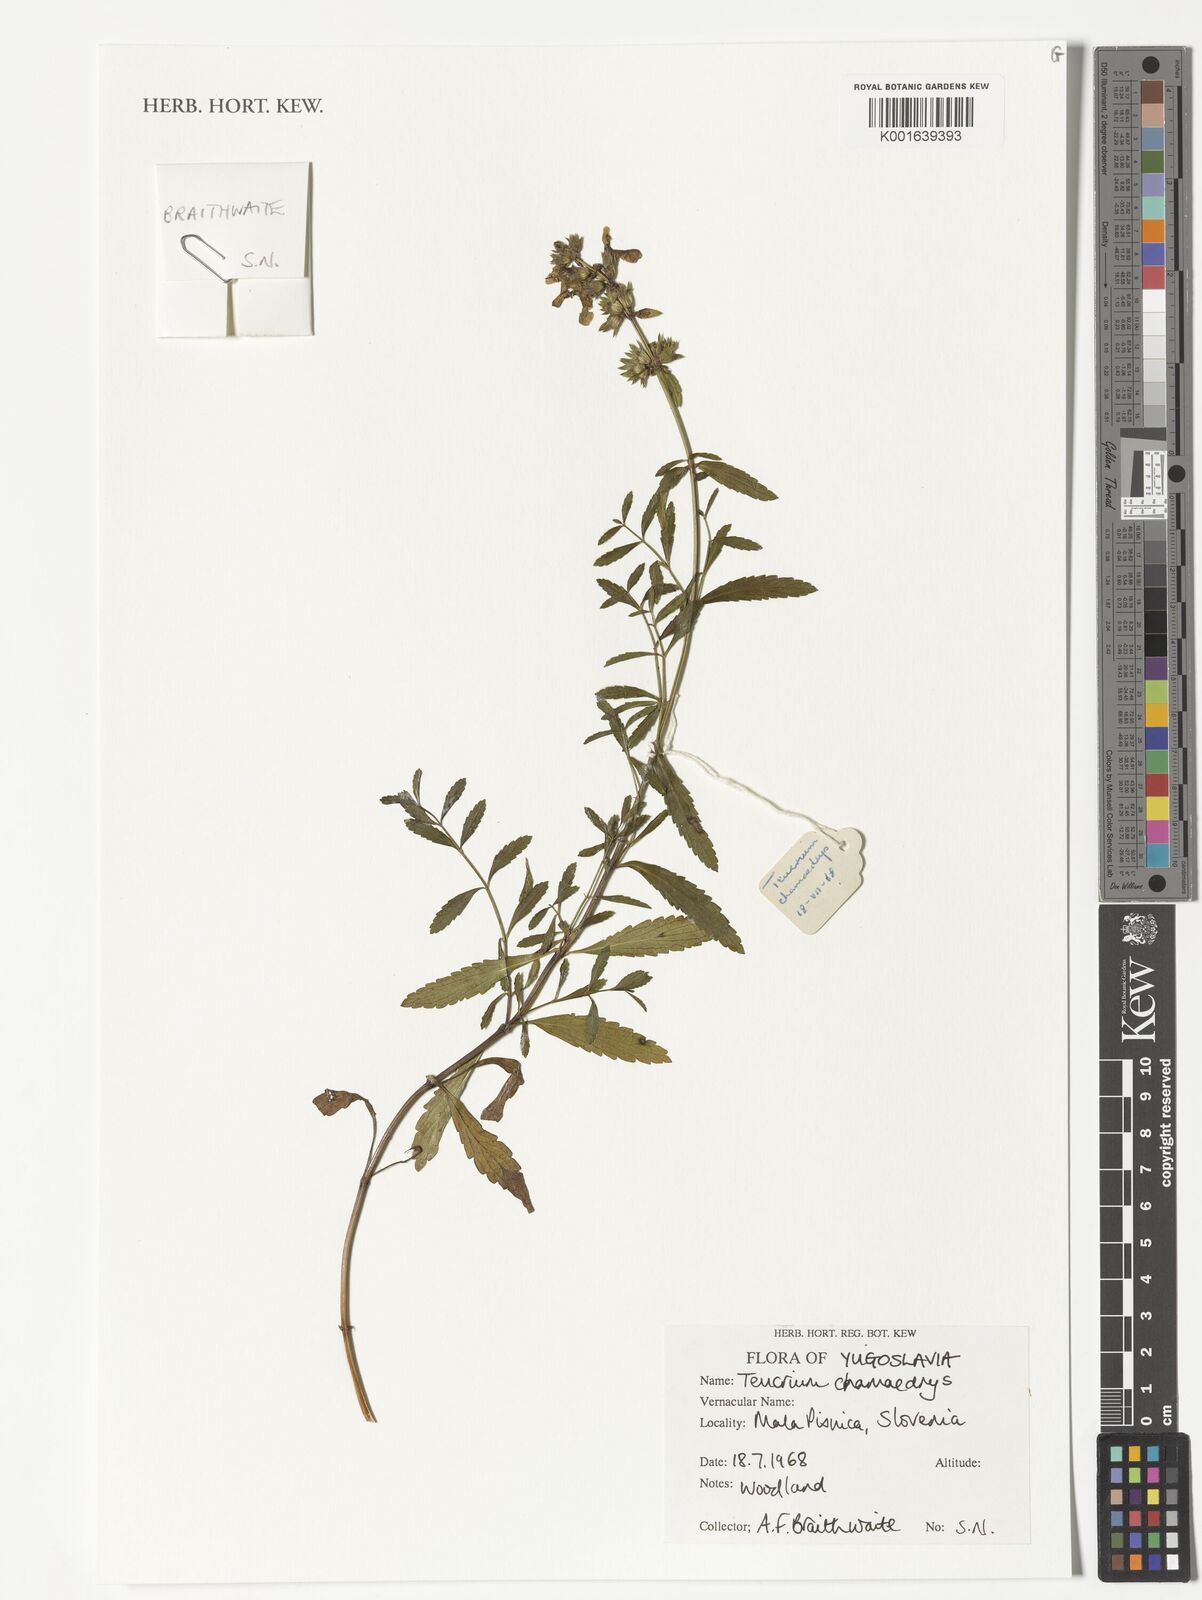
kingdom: Plantae
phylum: Tracheophyta
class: Magnoliopsida
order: Lamiales
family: Lamiaceae
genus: Teucrium
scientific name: Teucrium chamaedrys
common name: Wall germander
